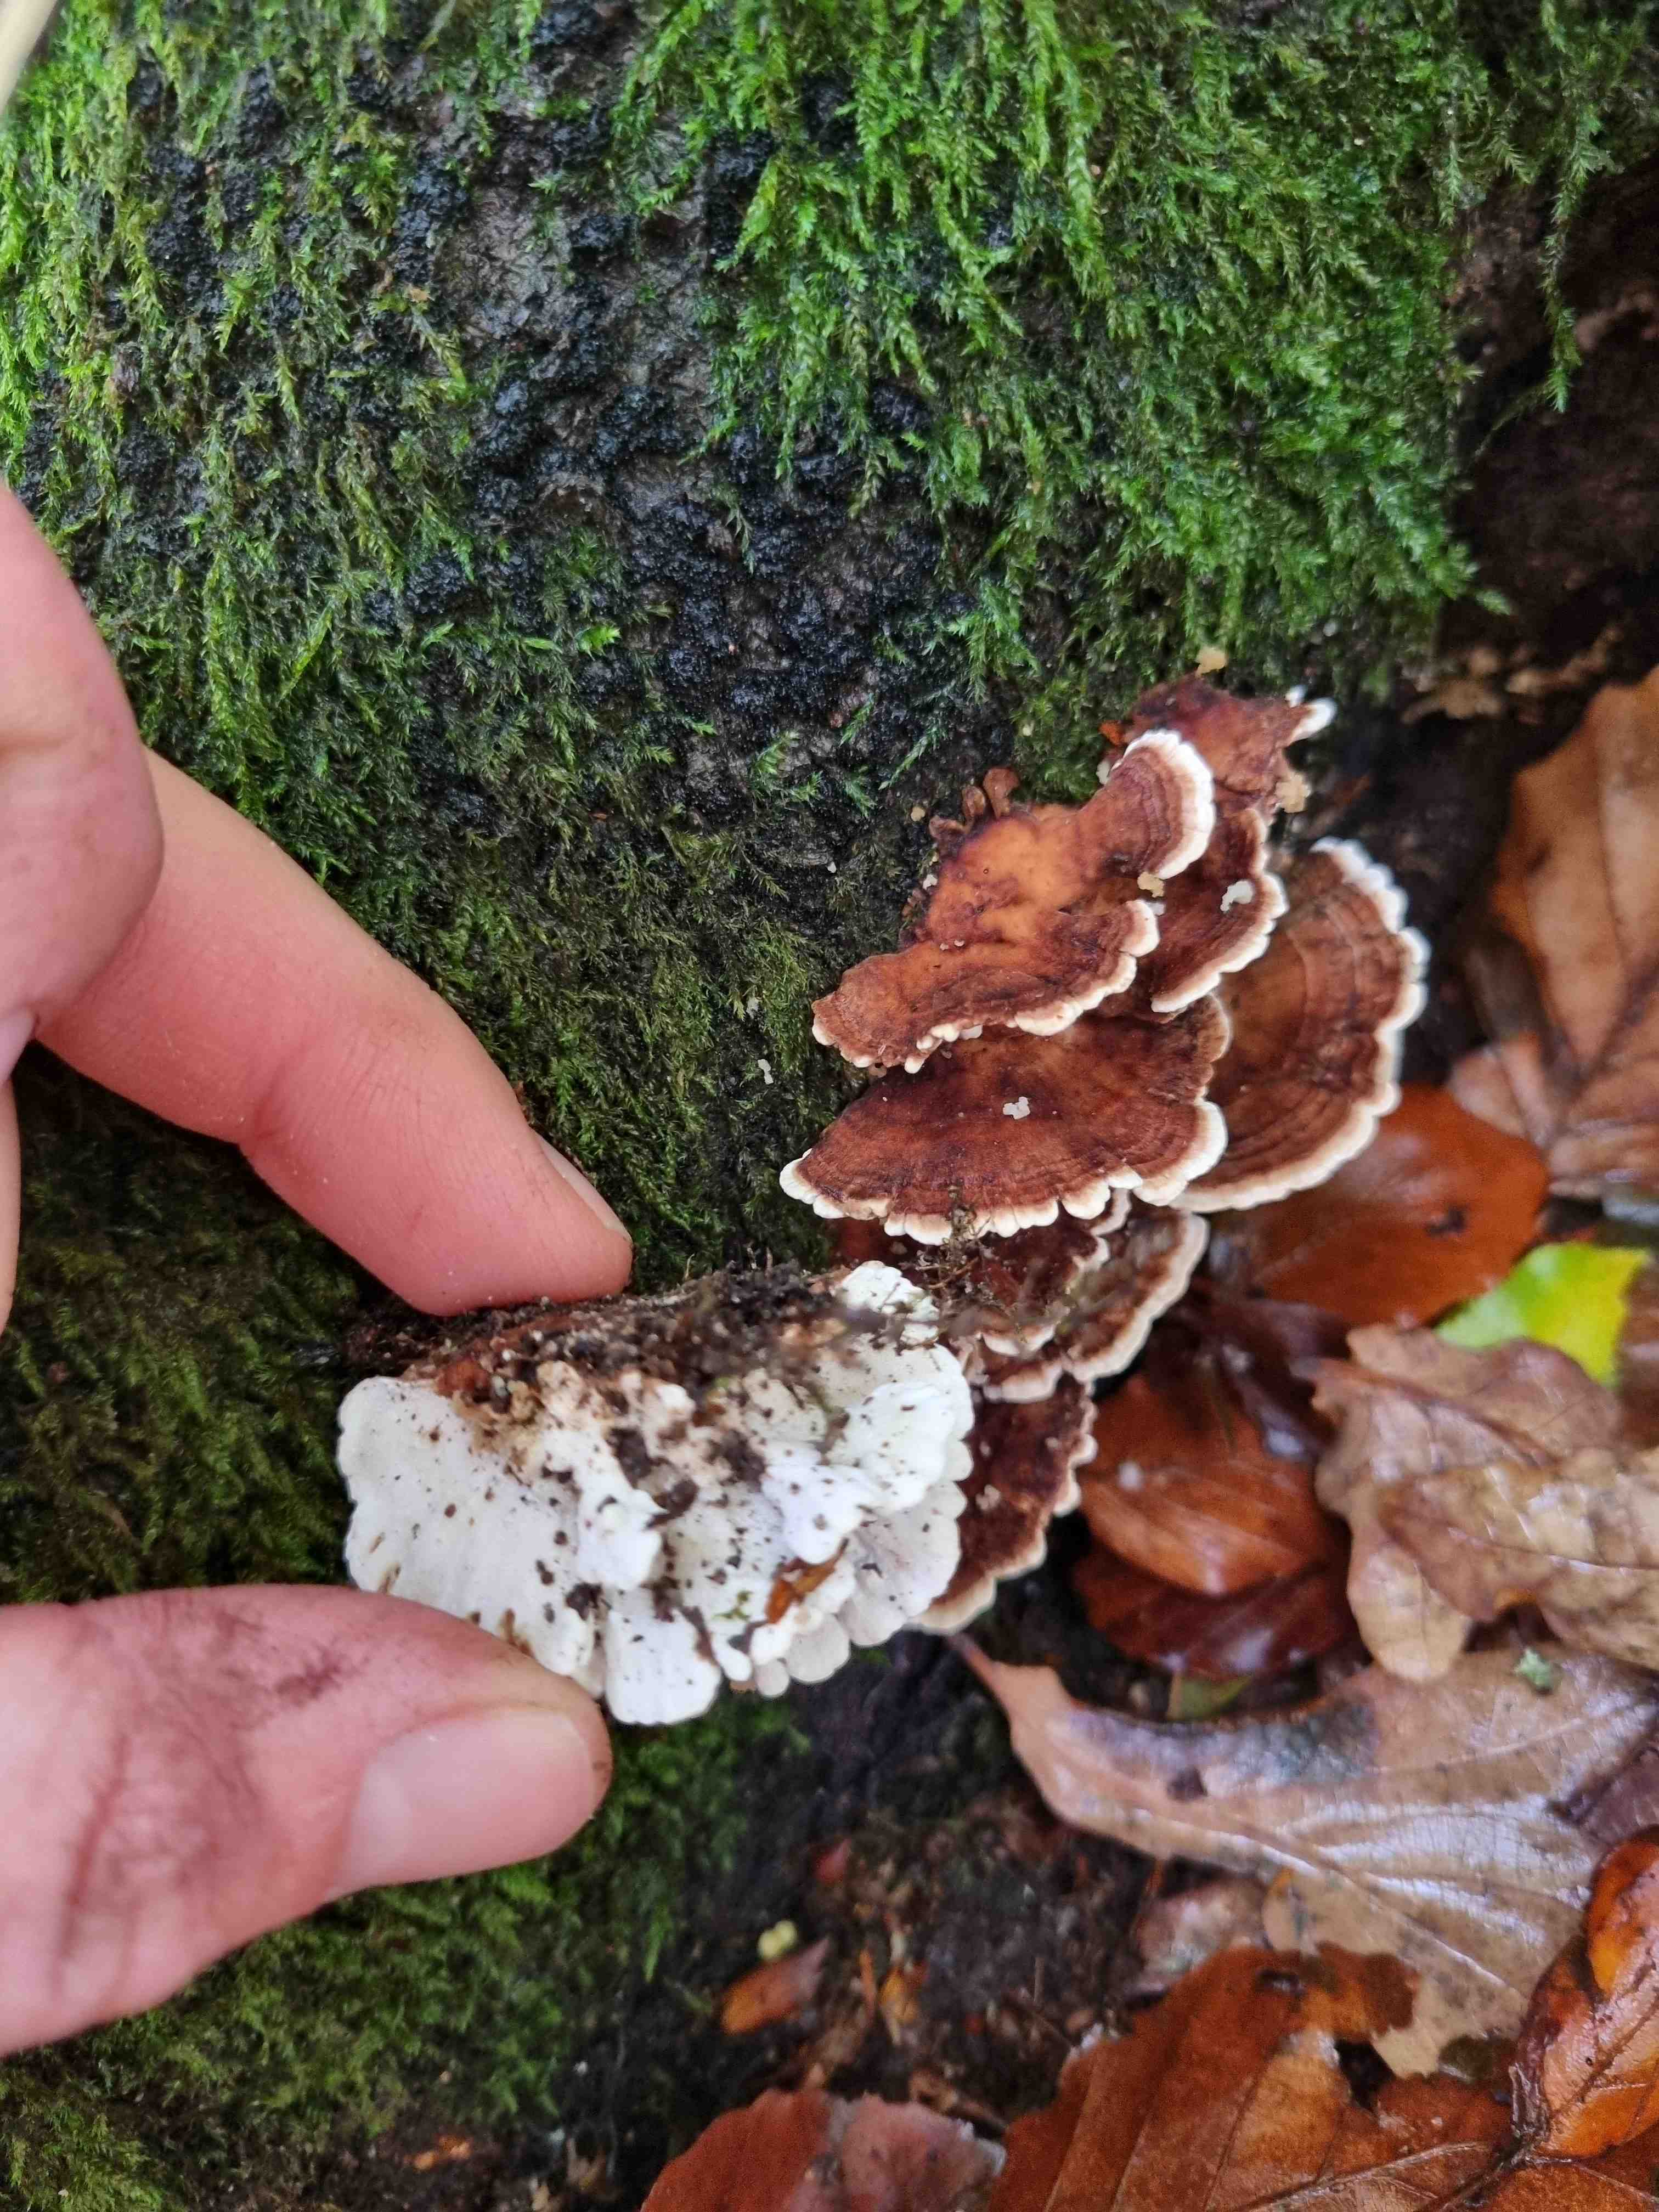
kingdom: Fungi
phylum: Basidiomycota
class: Agaricomycetes
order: Polyporales
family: Polyporaceae
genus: Trametes
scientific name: Trametes versicolor
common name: broget læderporesvamp
